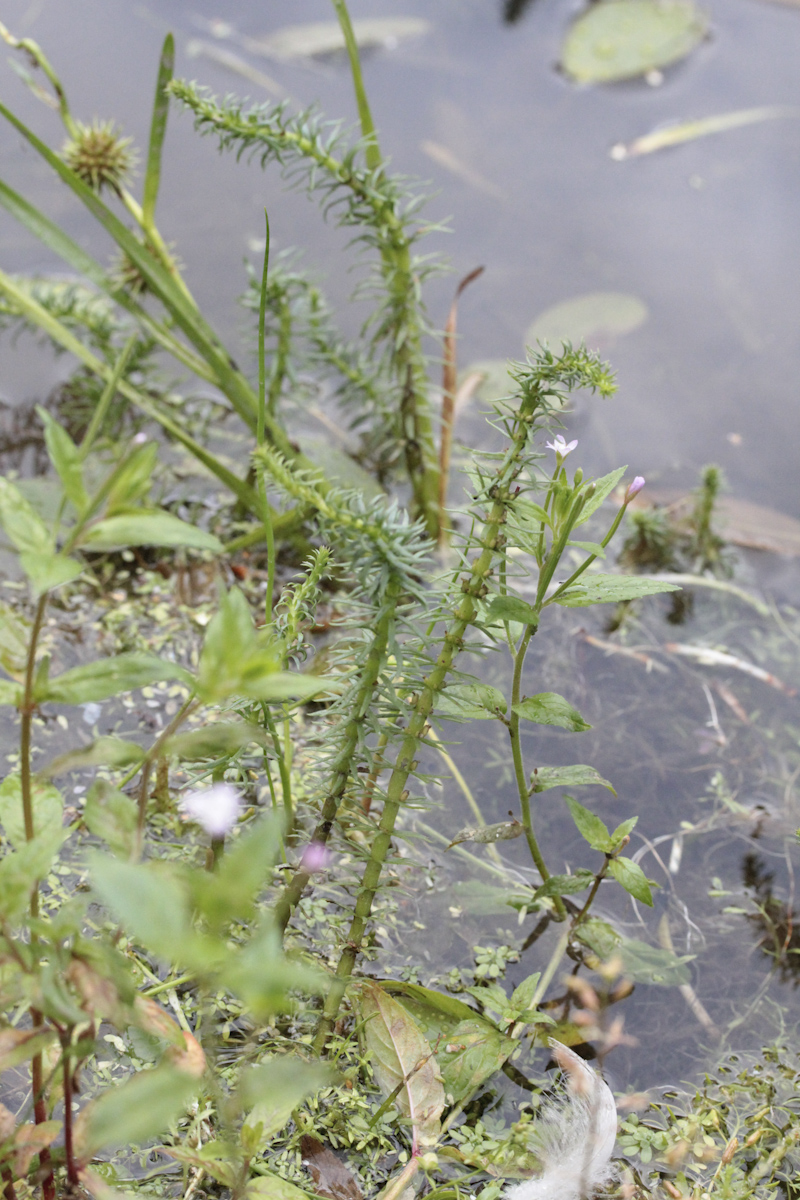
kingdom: Plantae
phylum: Tracheophyta
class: Magnoliopsida
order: Lamiales
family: Plantaginaceae
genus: Hippuris
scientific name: Hippuris vulgaris
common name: Mare's-tail
